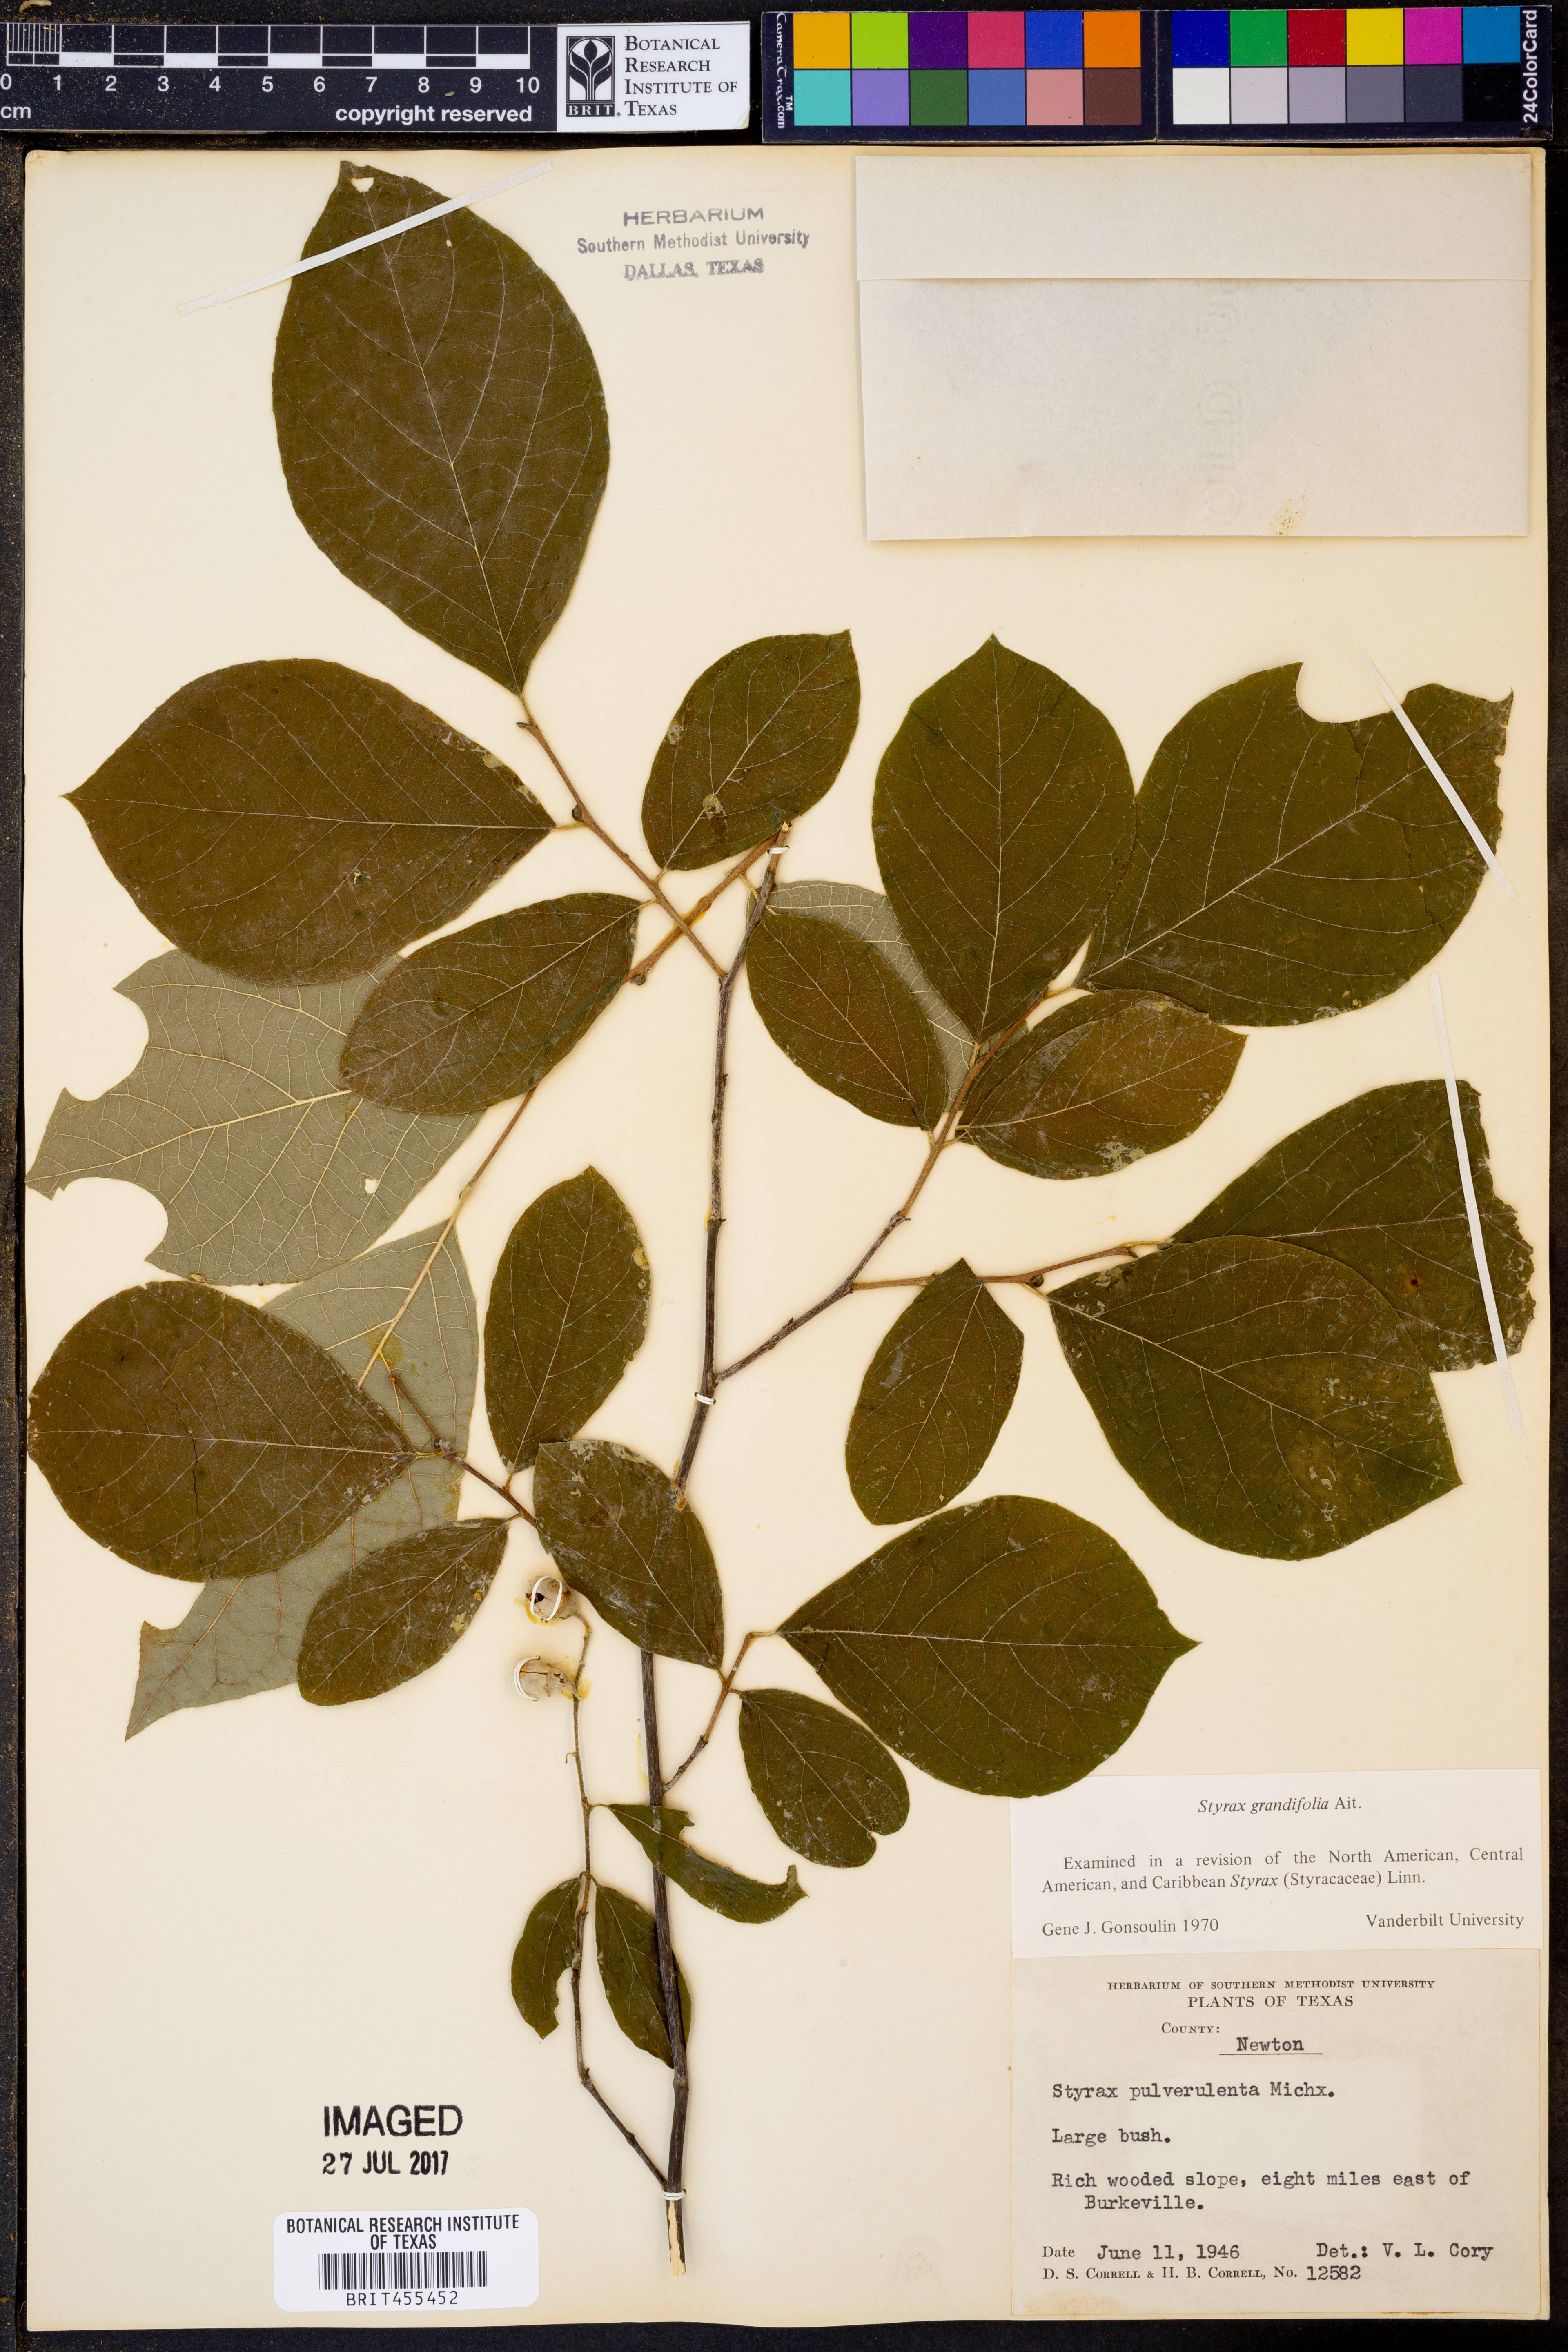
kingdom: Plantae
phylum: Tracheophyta
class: Magnoliopsida
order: Ericales
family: Styracaceae
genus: Styrax
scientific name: Styrax grandifolius
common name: Big-leaf snowbell
